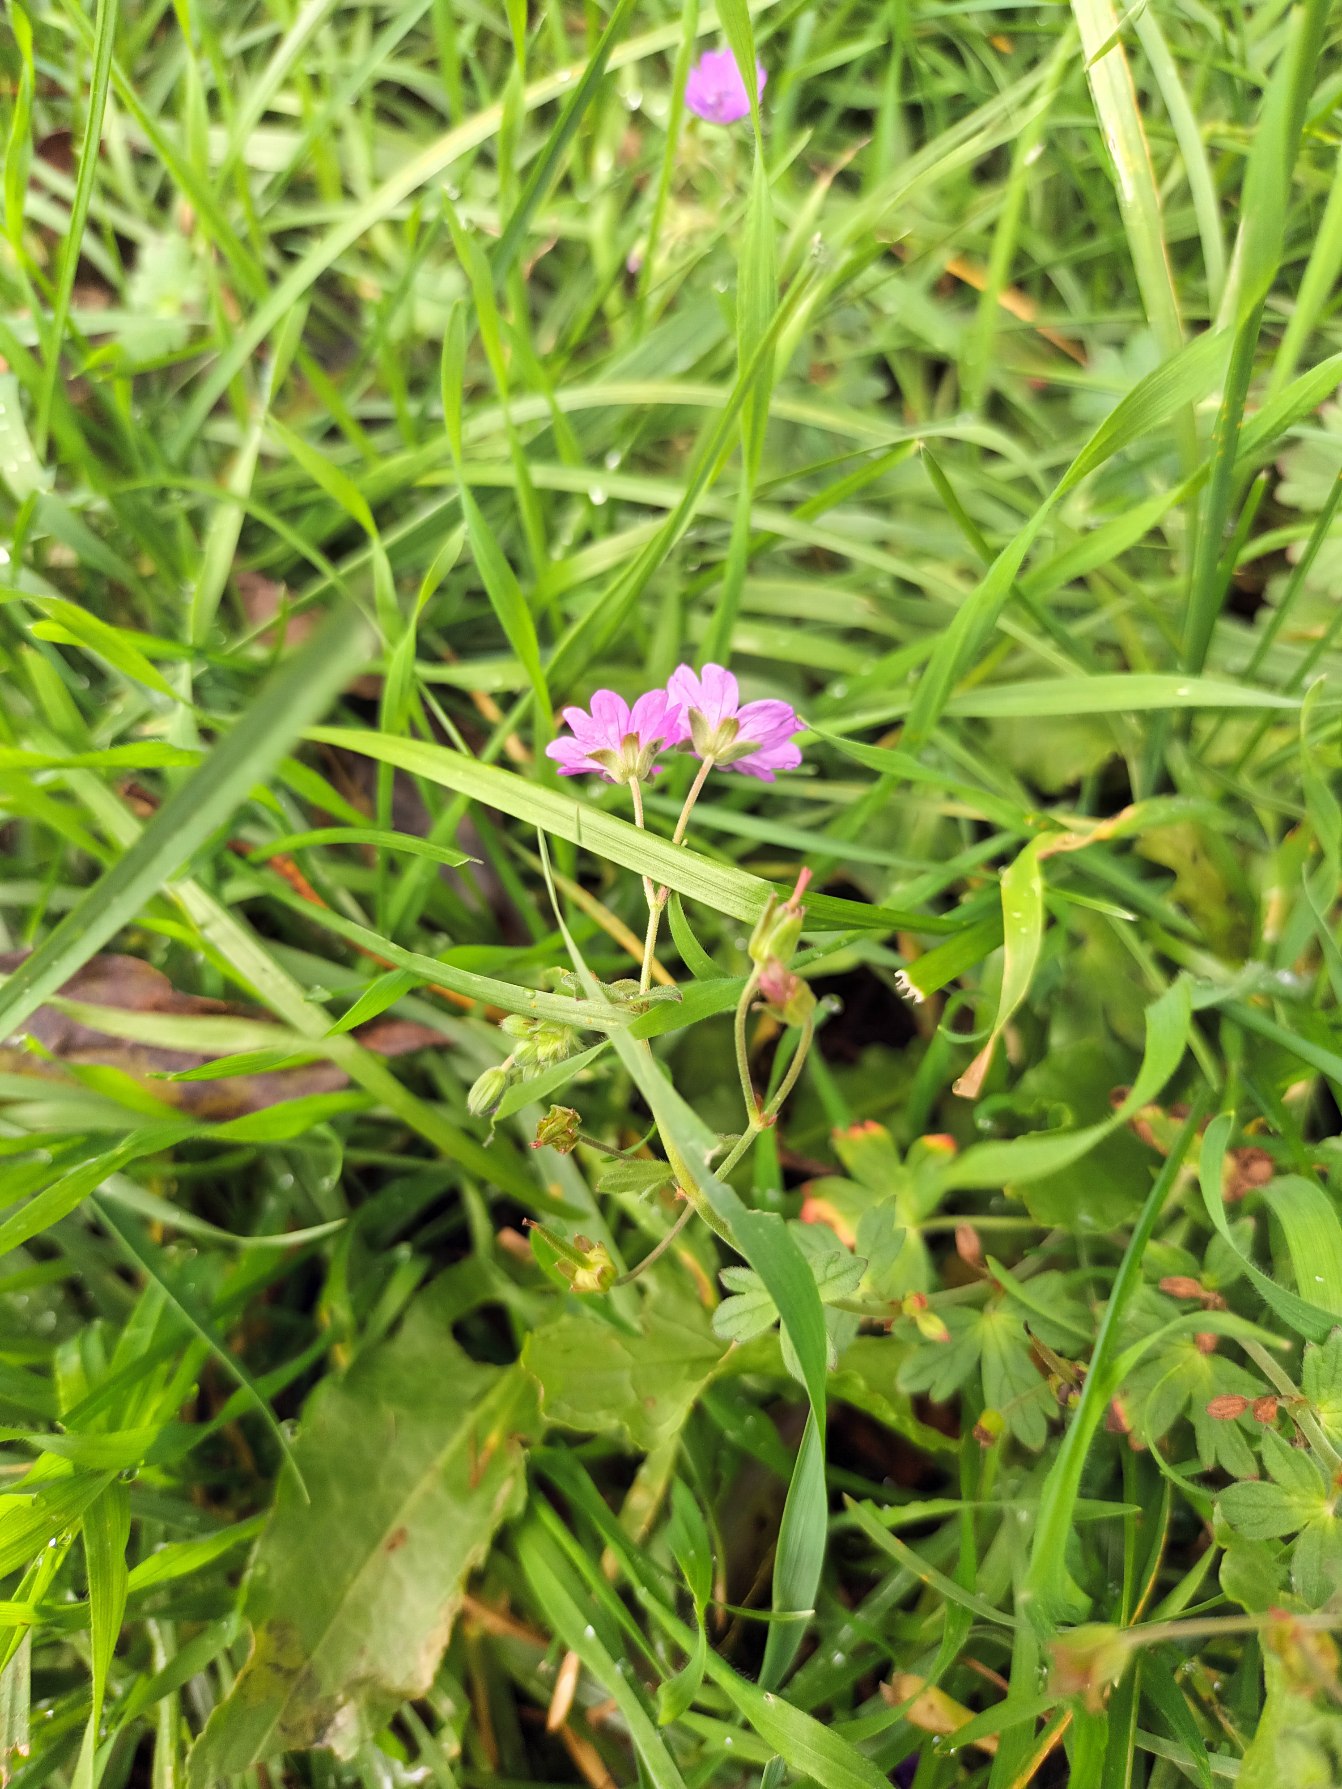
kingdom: Plantae
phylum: Tracheophyta
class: Magnoliopsida
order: Geraniales
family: Geraniaceae
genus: Geranium
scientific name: Geranium pyrenaicum
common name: Pyrenæisk storkenæb
